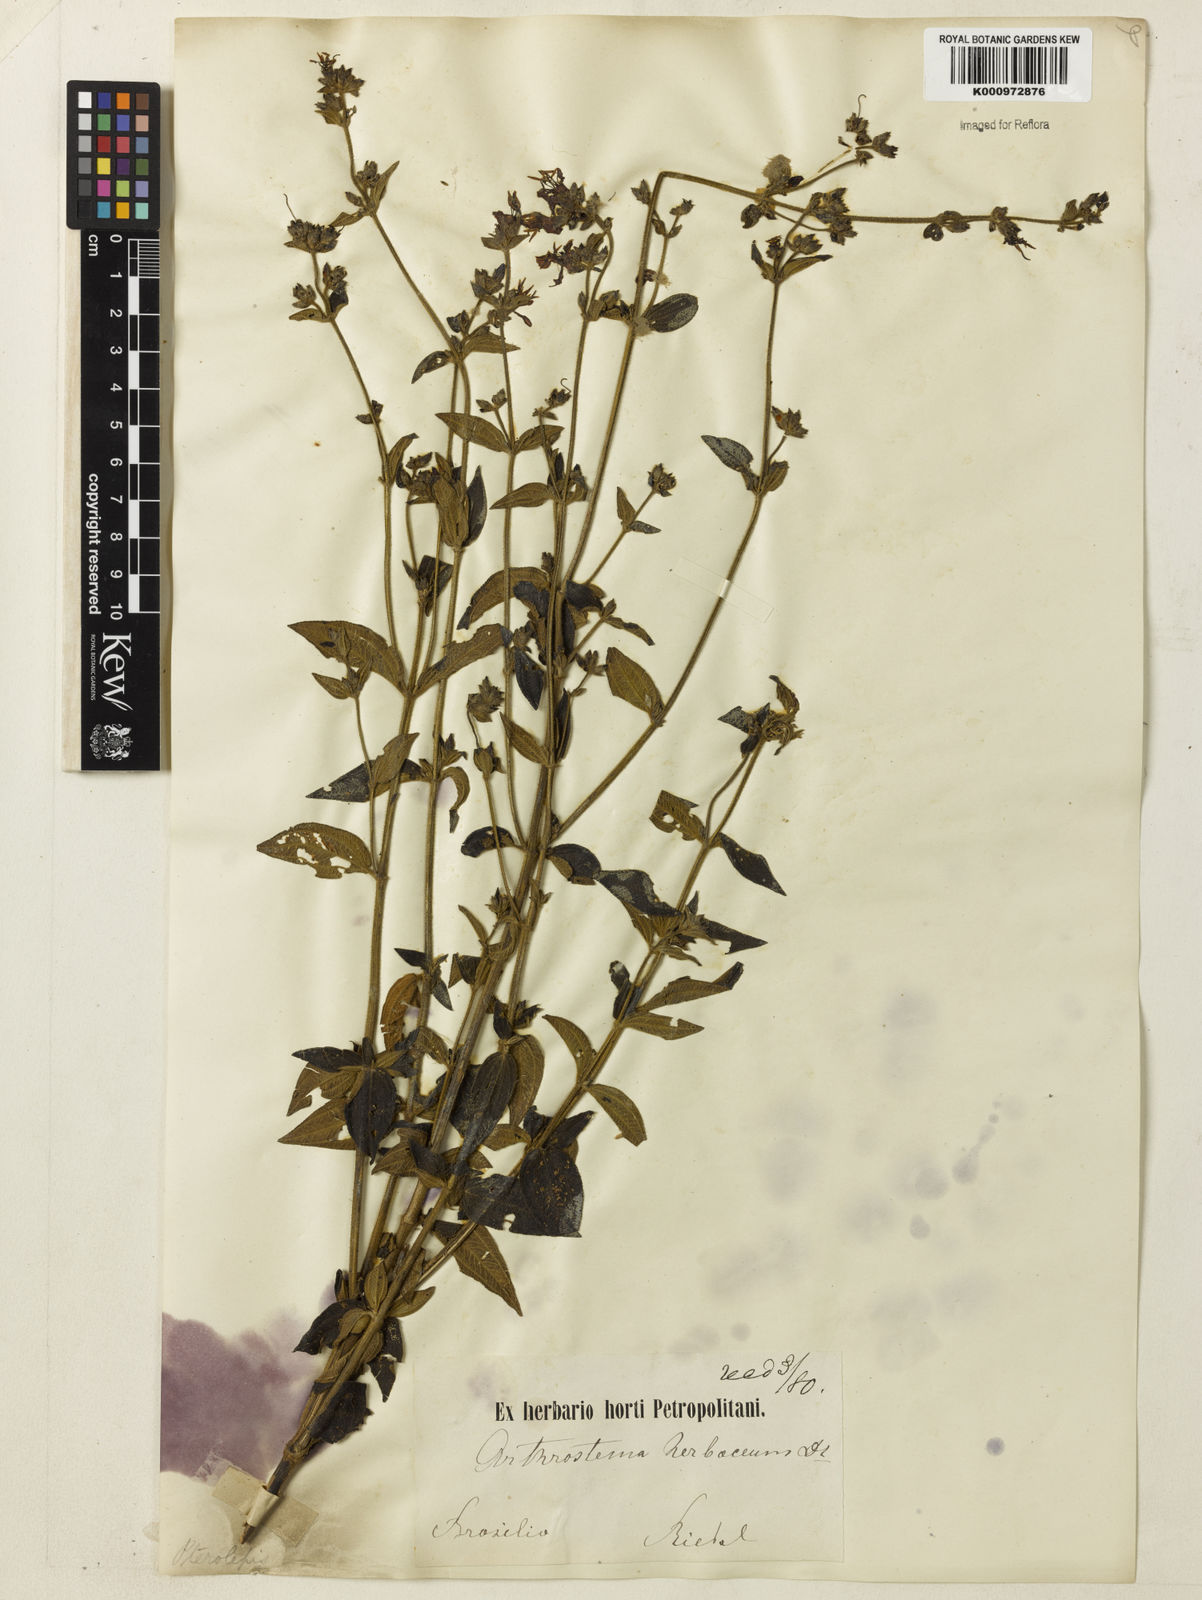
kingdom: Plantae
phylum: Tracheophyta
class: Magnoliopsida
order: Myrtales
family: Melastomataceae
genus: Chaetogastra
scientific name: Chaetogastra herbacea
